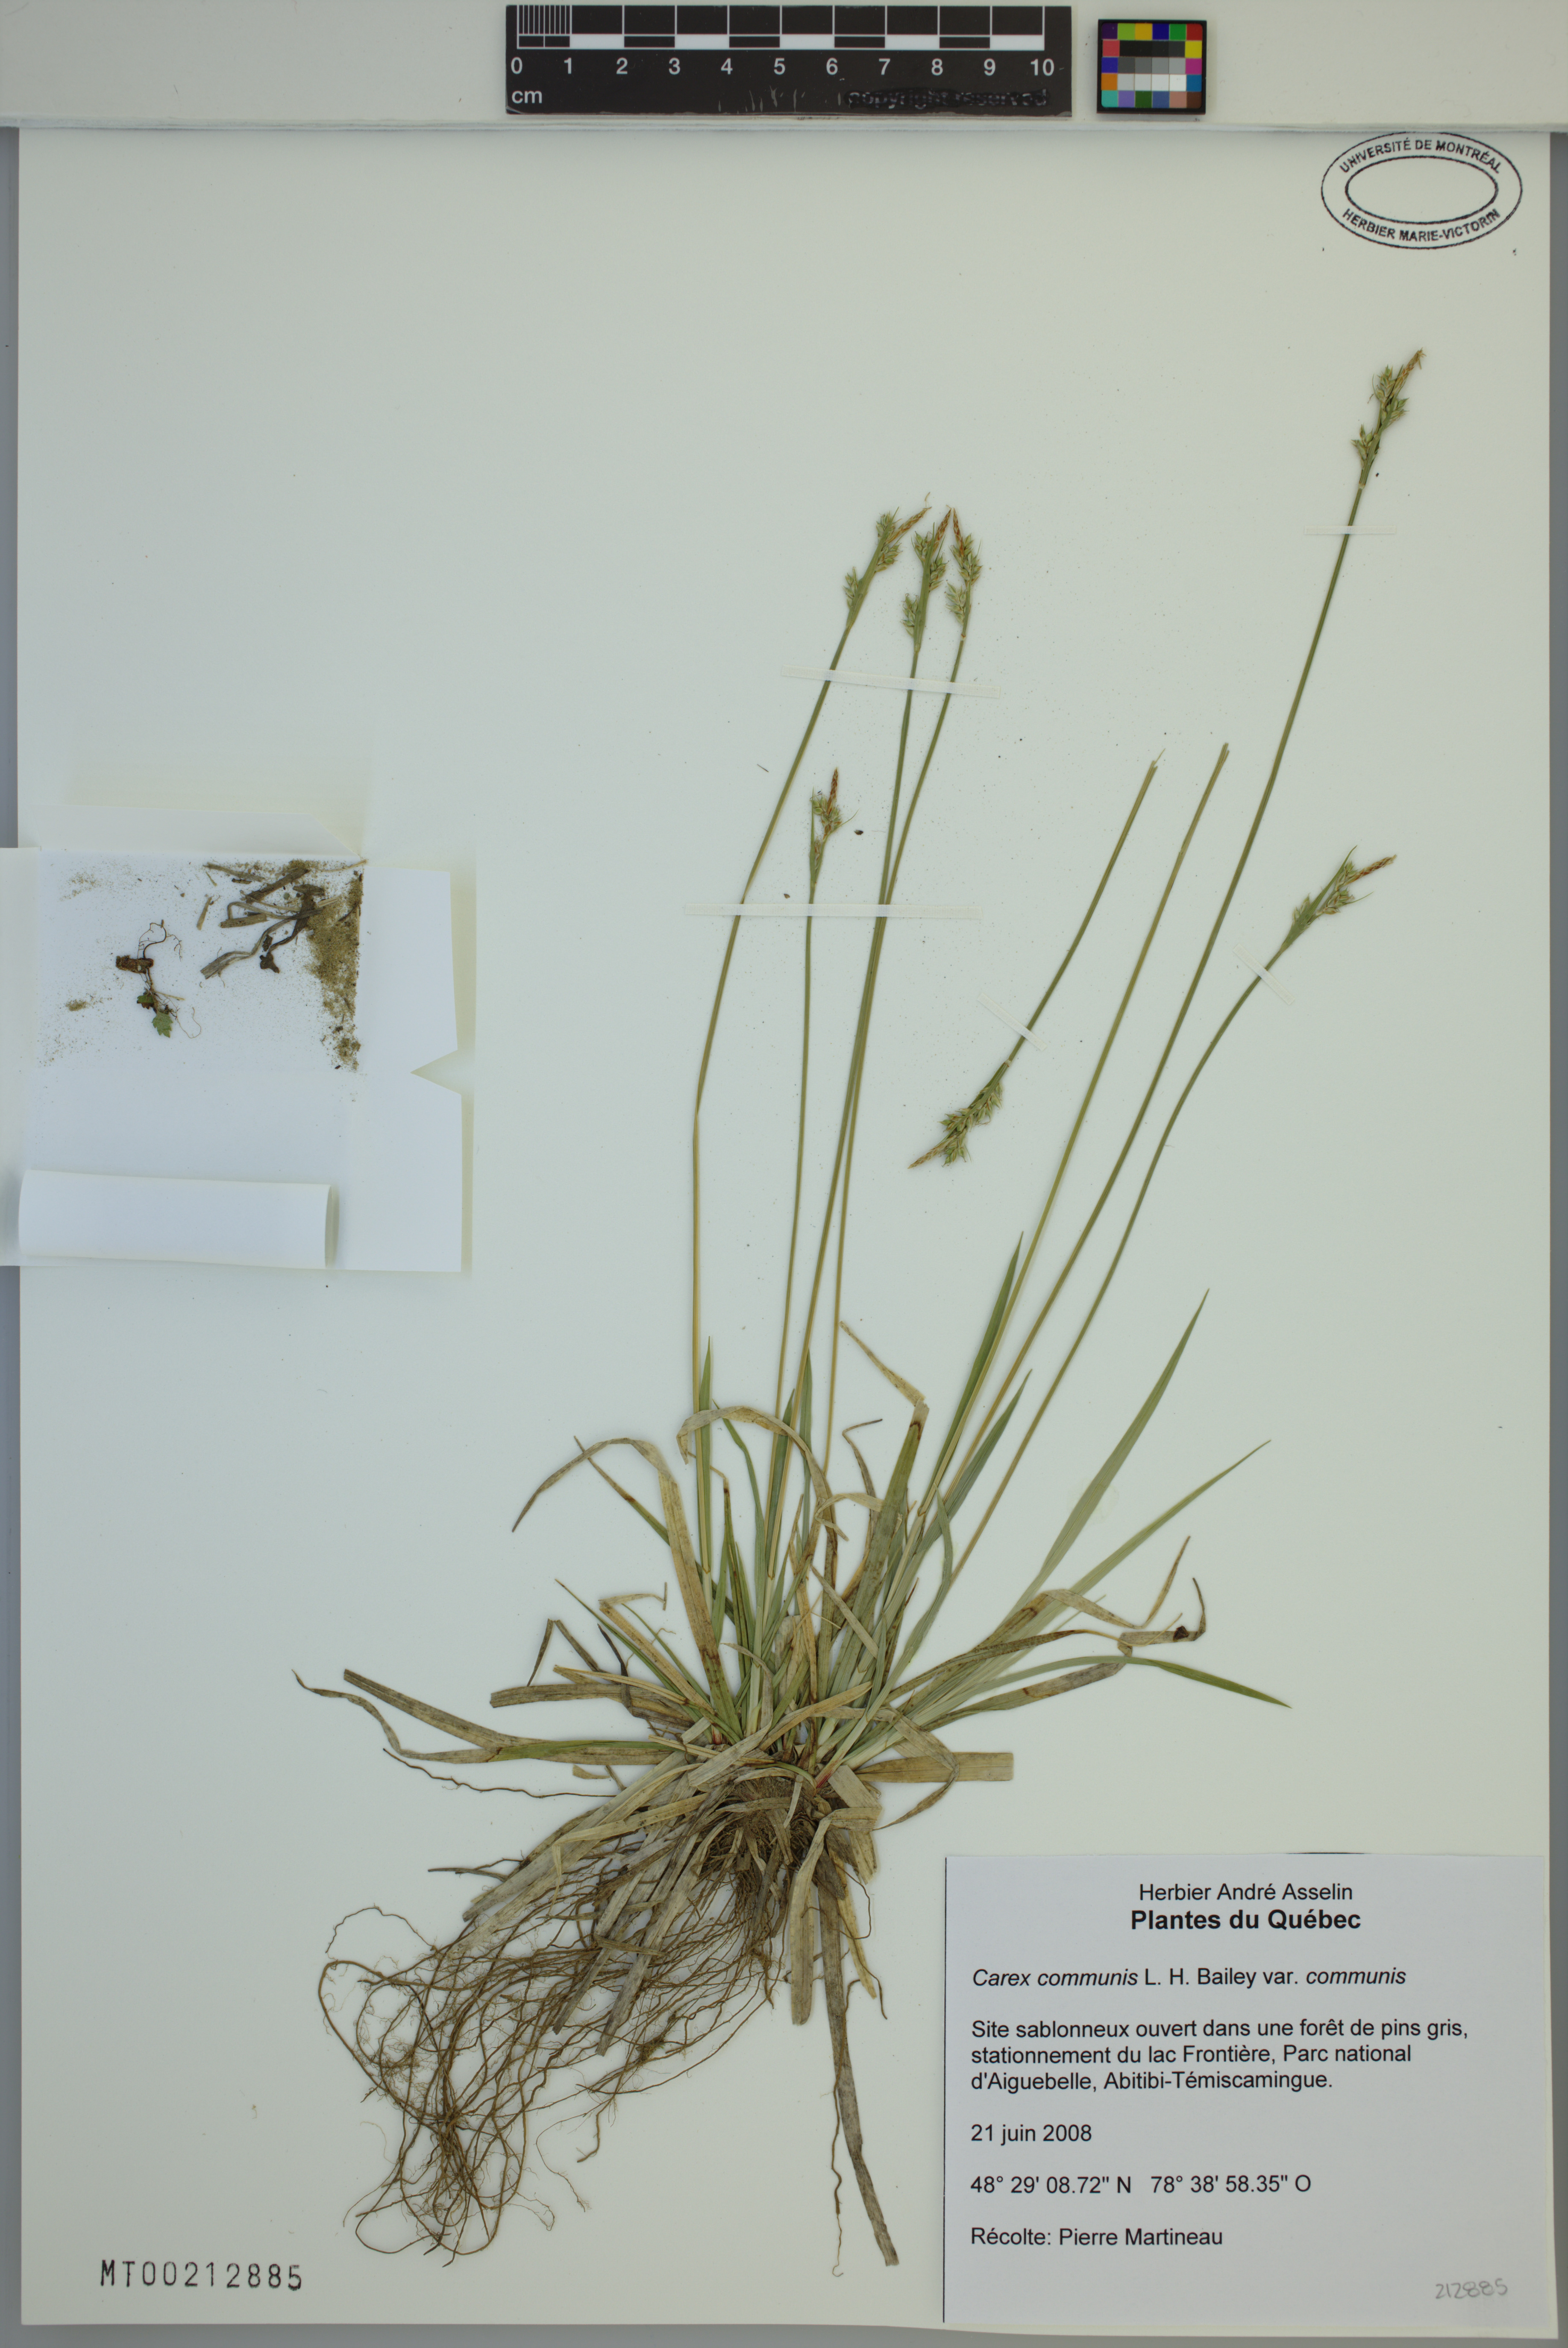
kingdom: Plantae
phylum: Tracheophyta
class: Liliopsida
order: Poales
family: Cyperaceae
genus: Carex
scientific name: Carex communis
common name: Colonial oak sedge
